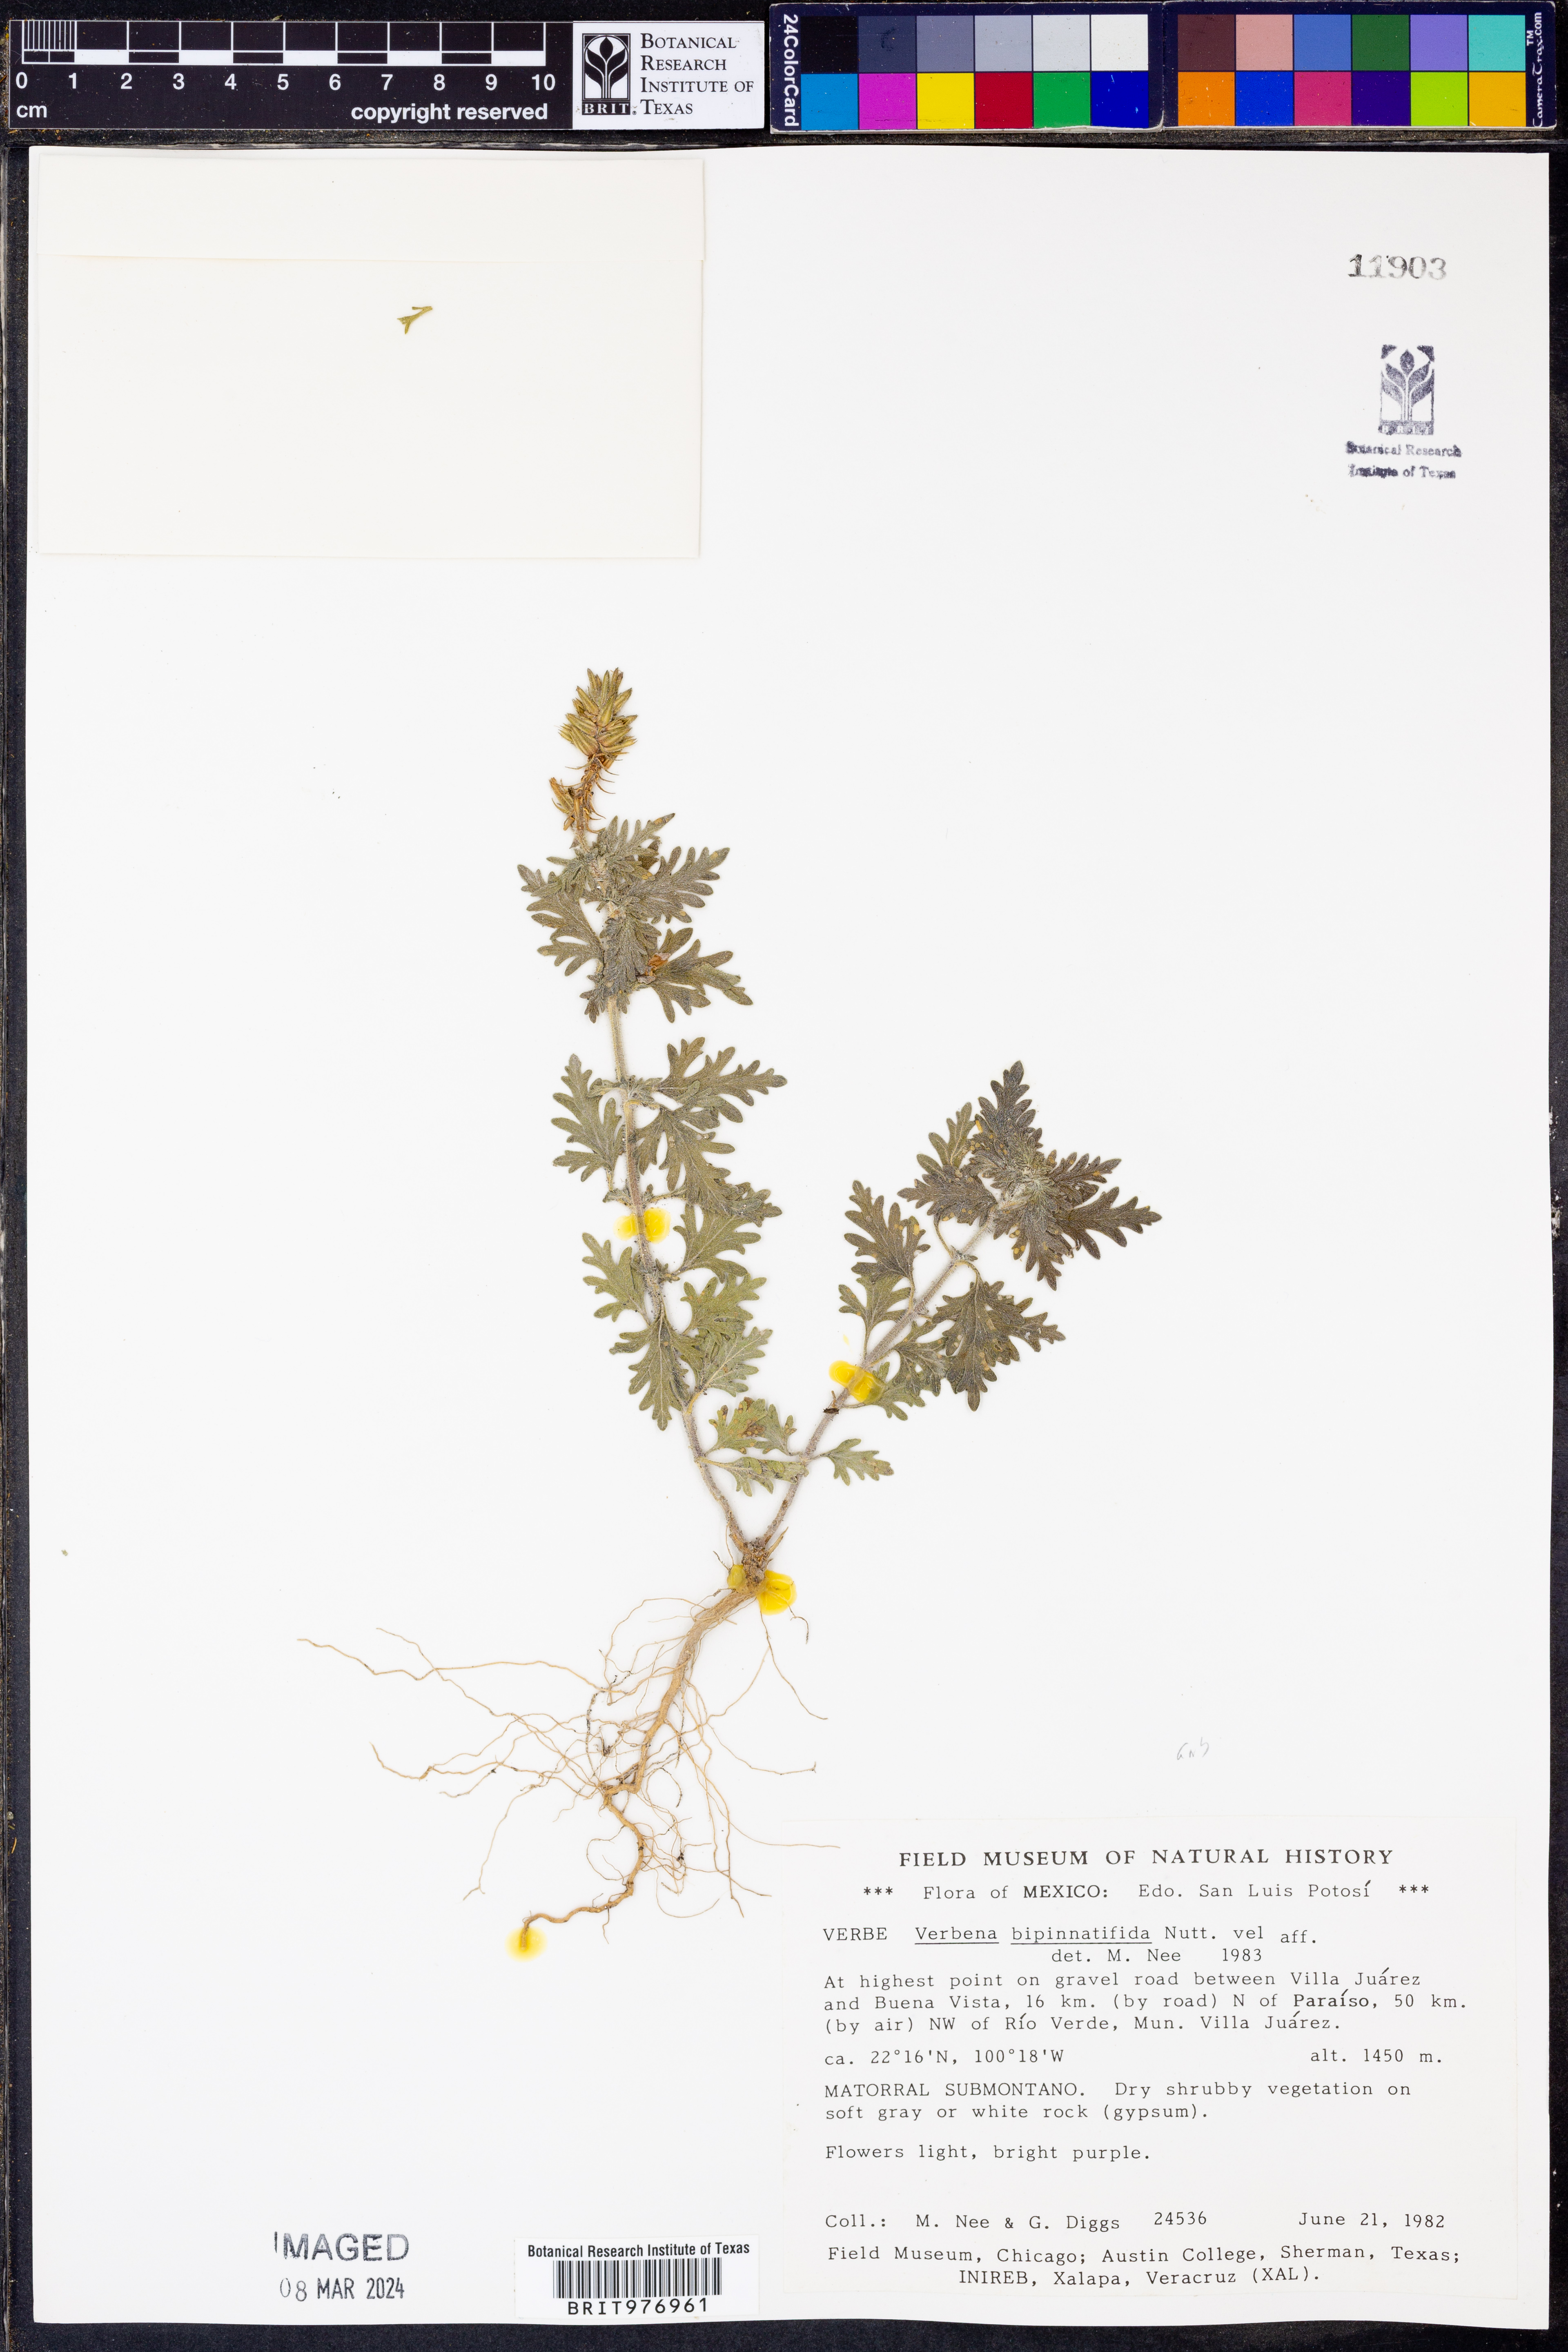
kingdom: Plantae
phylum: Tracheophyta
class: Magnoliopsida
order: Lamiales
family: Verbenaceae
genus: Verbena
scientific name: Verbena
